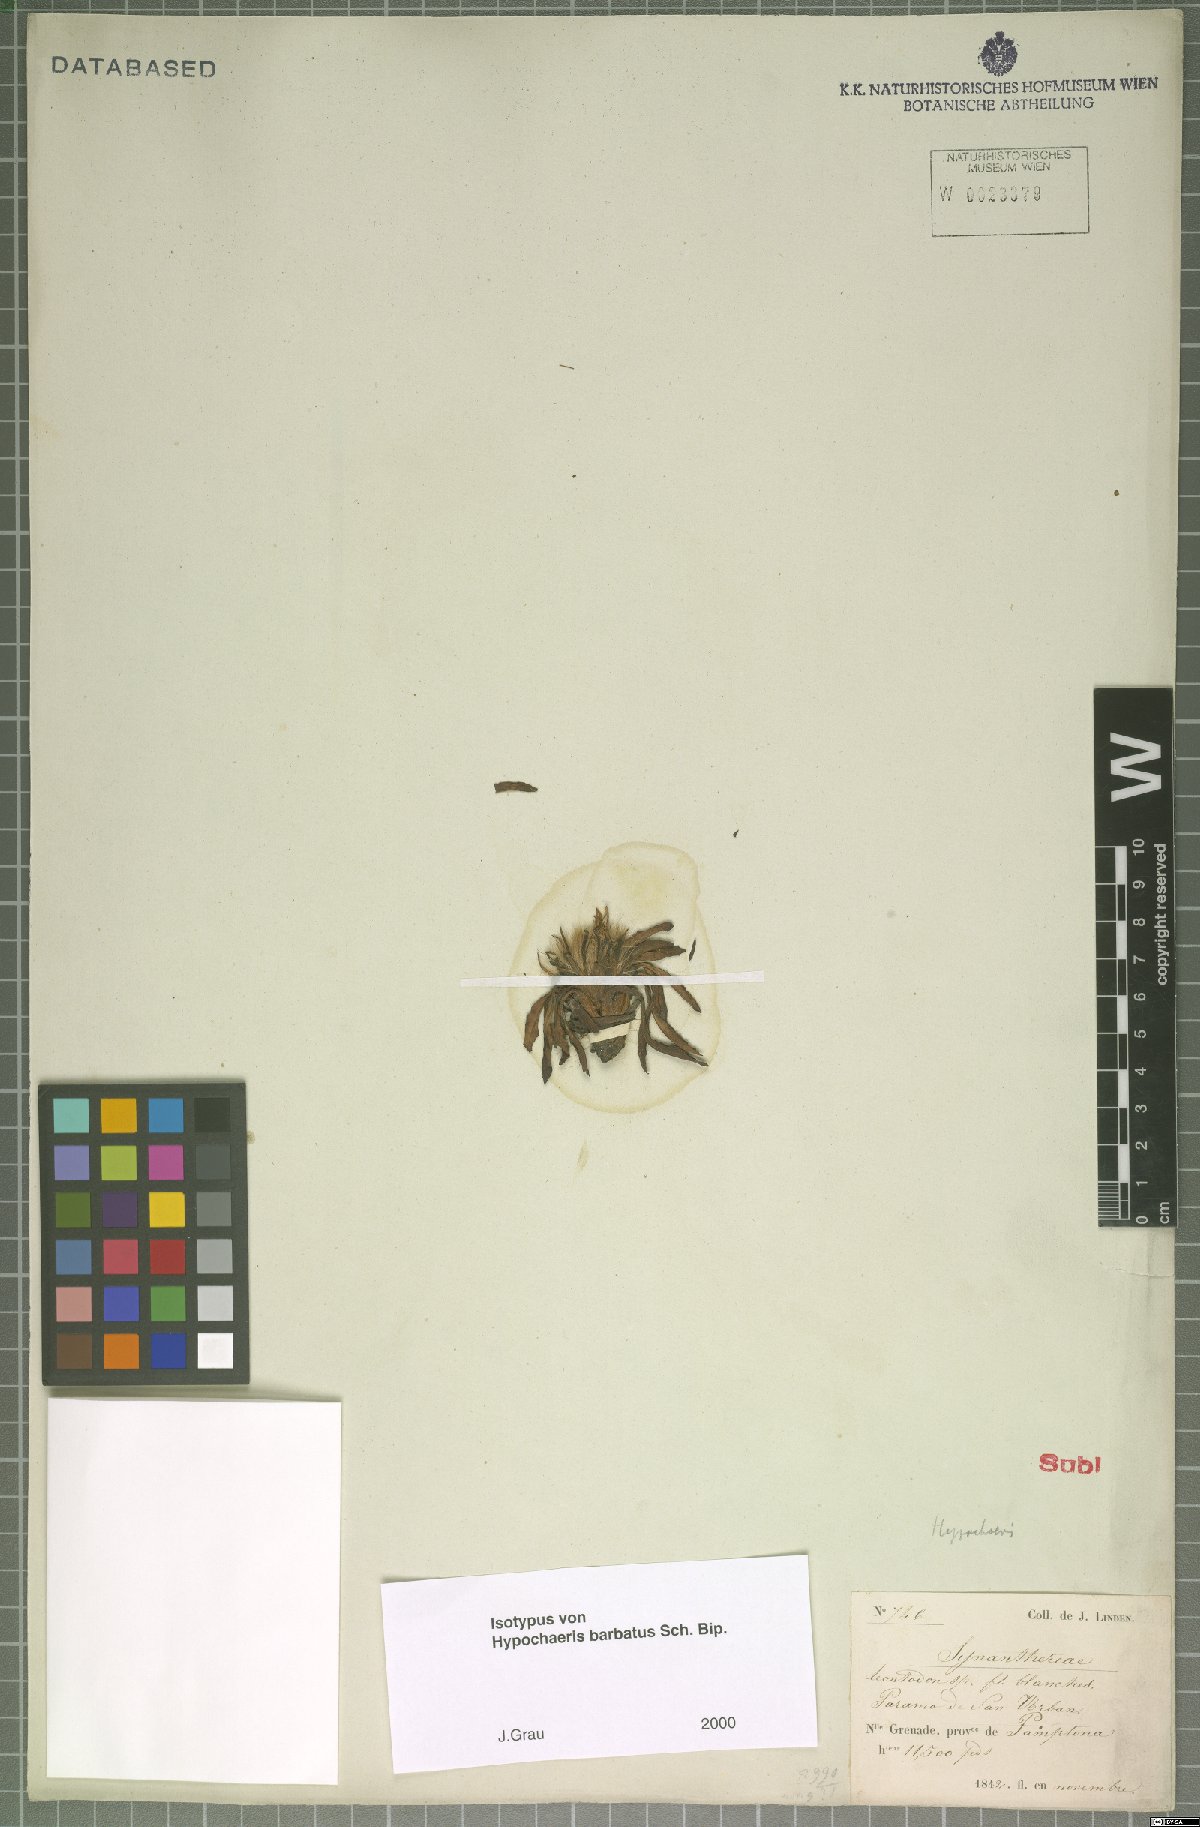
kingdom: Plantae
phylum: Tracheophyta
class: Magnoliopsida
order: Asterales
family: Asteraceae
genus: Hypochaeris
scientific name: Hypochaeris sessiliflora
